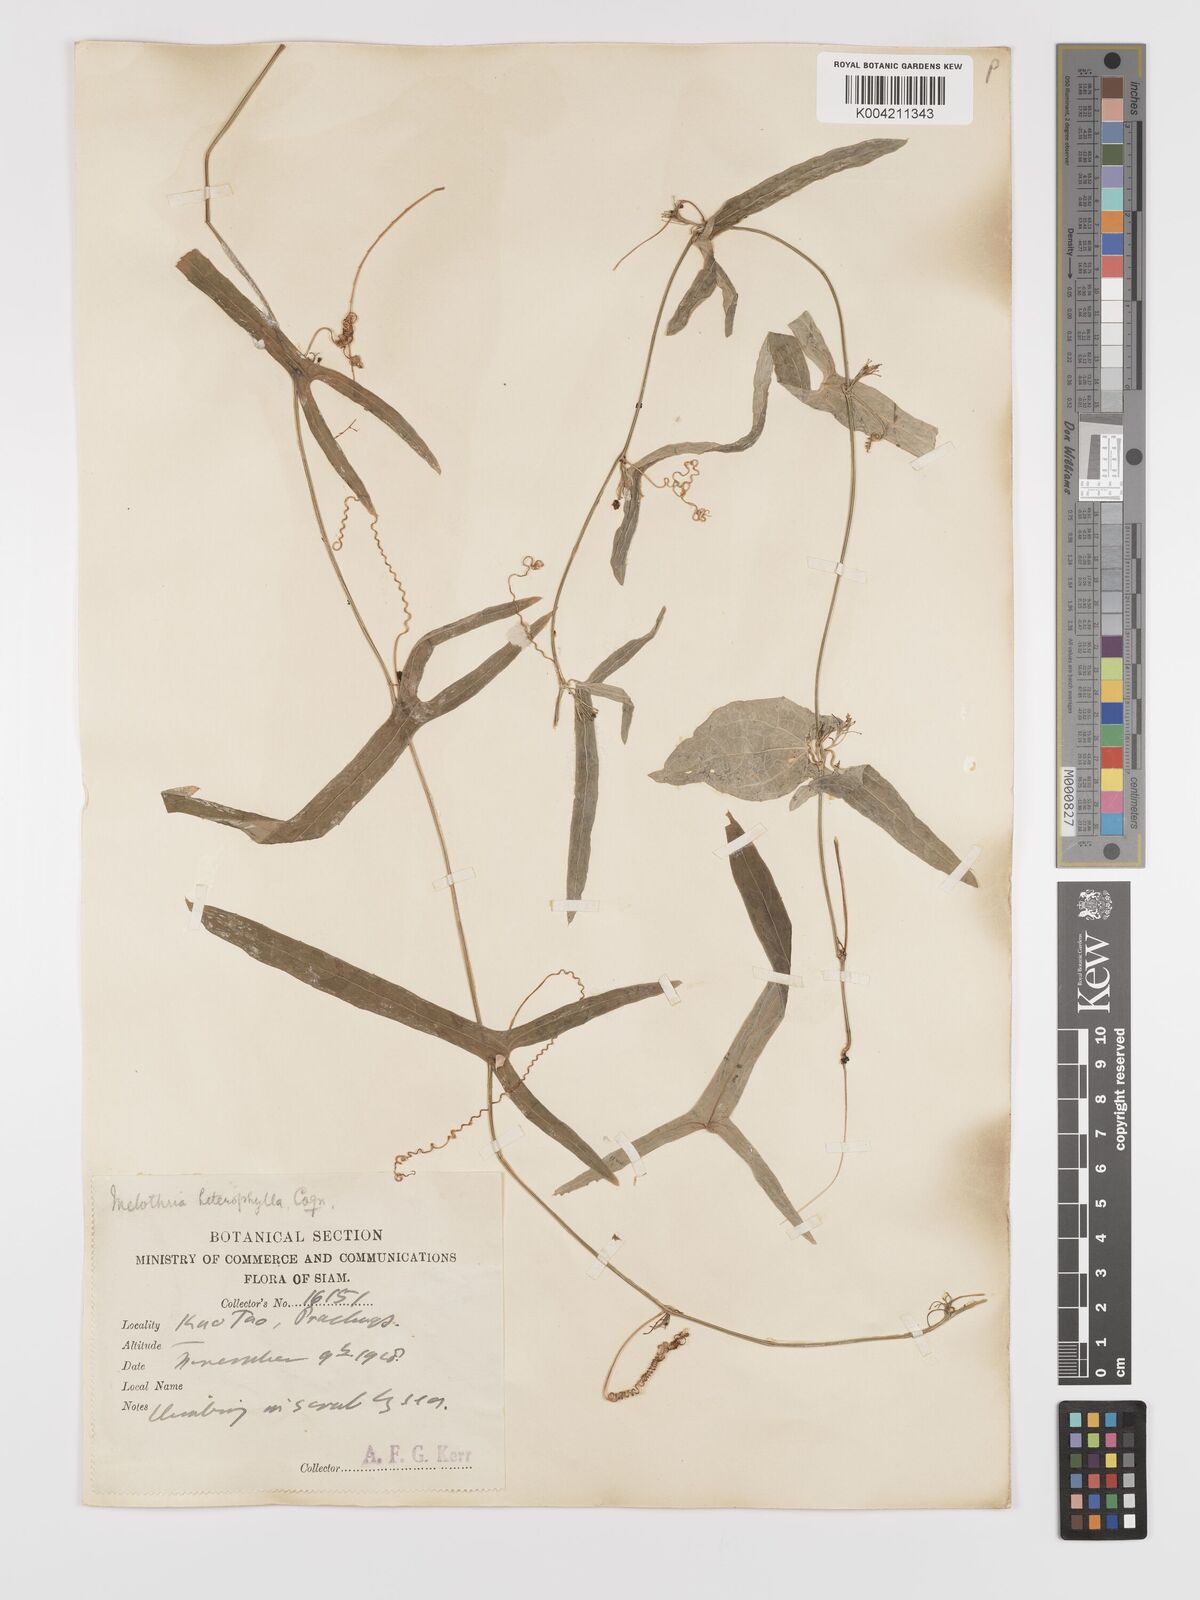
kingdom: Plantae
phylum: Tracheophyta
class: Magnoliopsida
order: Cucurbitales
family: Cucurbitaceae
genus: Solena
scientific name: Solena amplexicaulis
